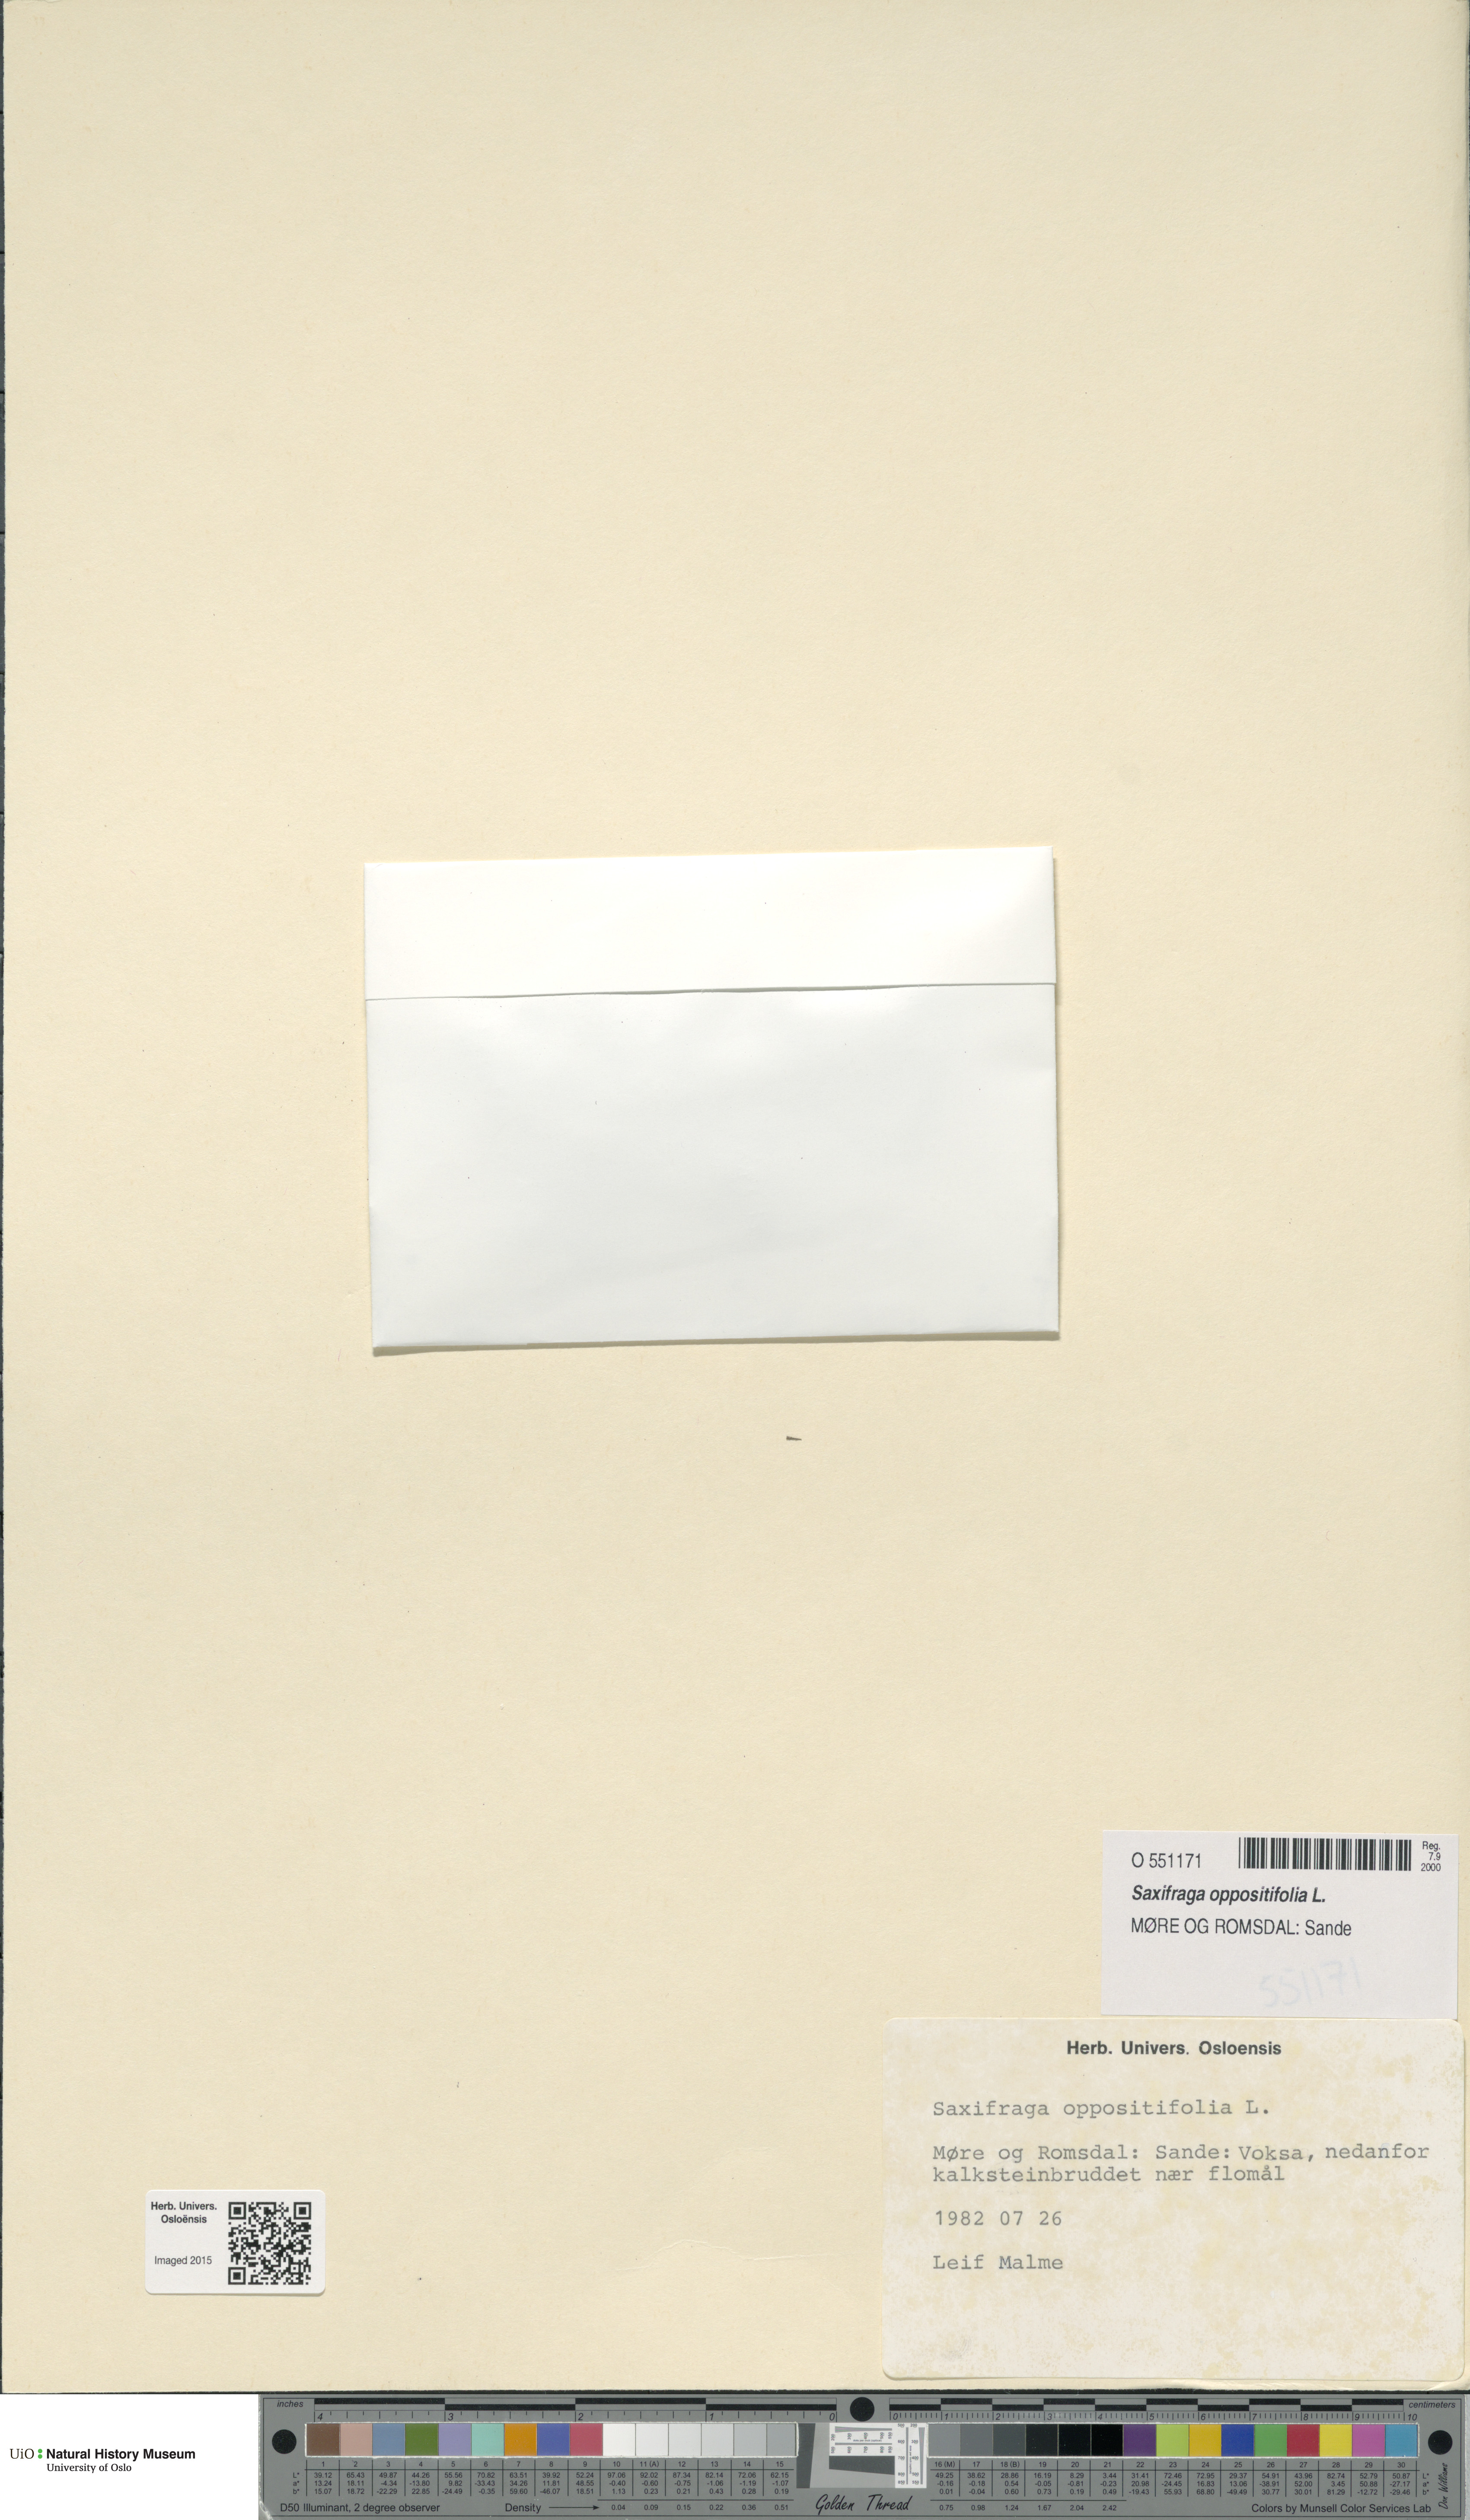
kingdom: Plantae
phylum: Tracheophyta
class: Magnoliopsida
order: Saxifragales
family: Saxifragaceae
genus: Saxifraga
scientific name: Saxifraga oppositifolia
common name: Purple saxifrage
